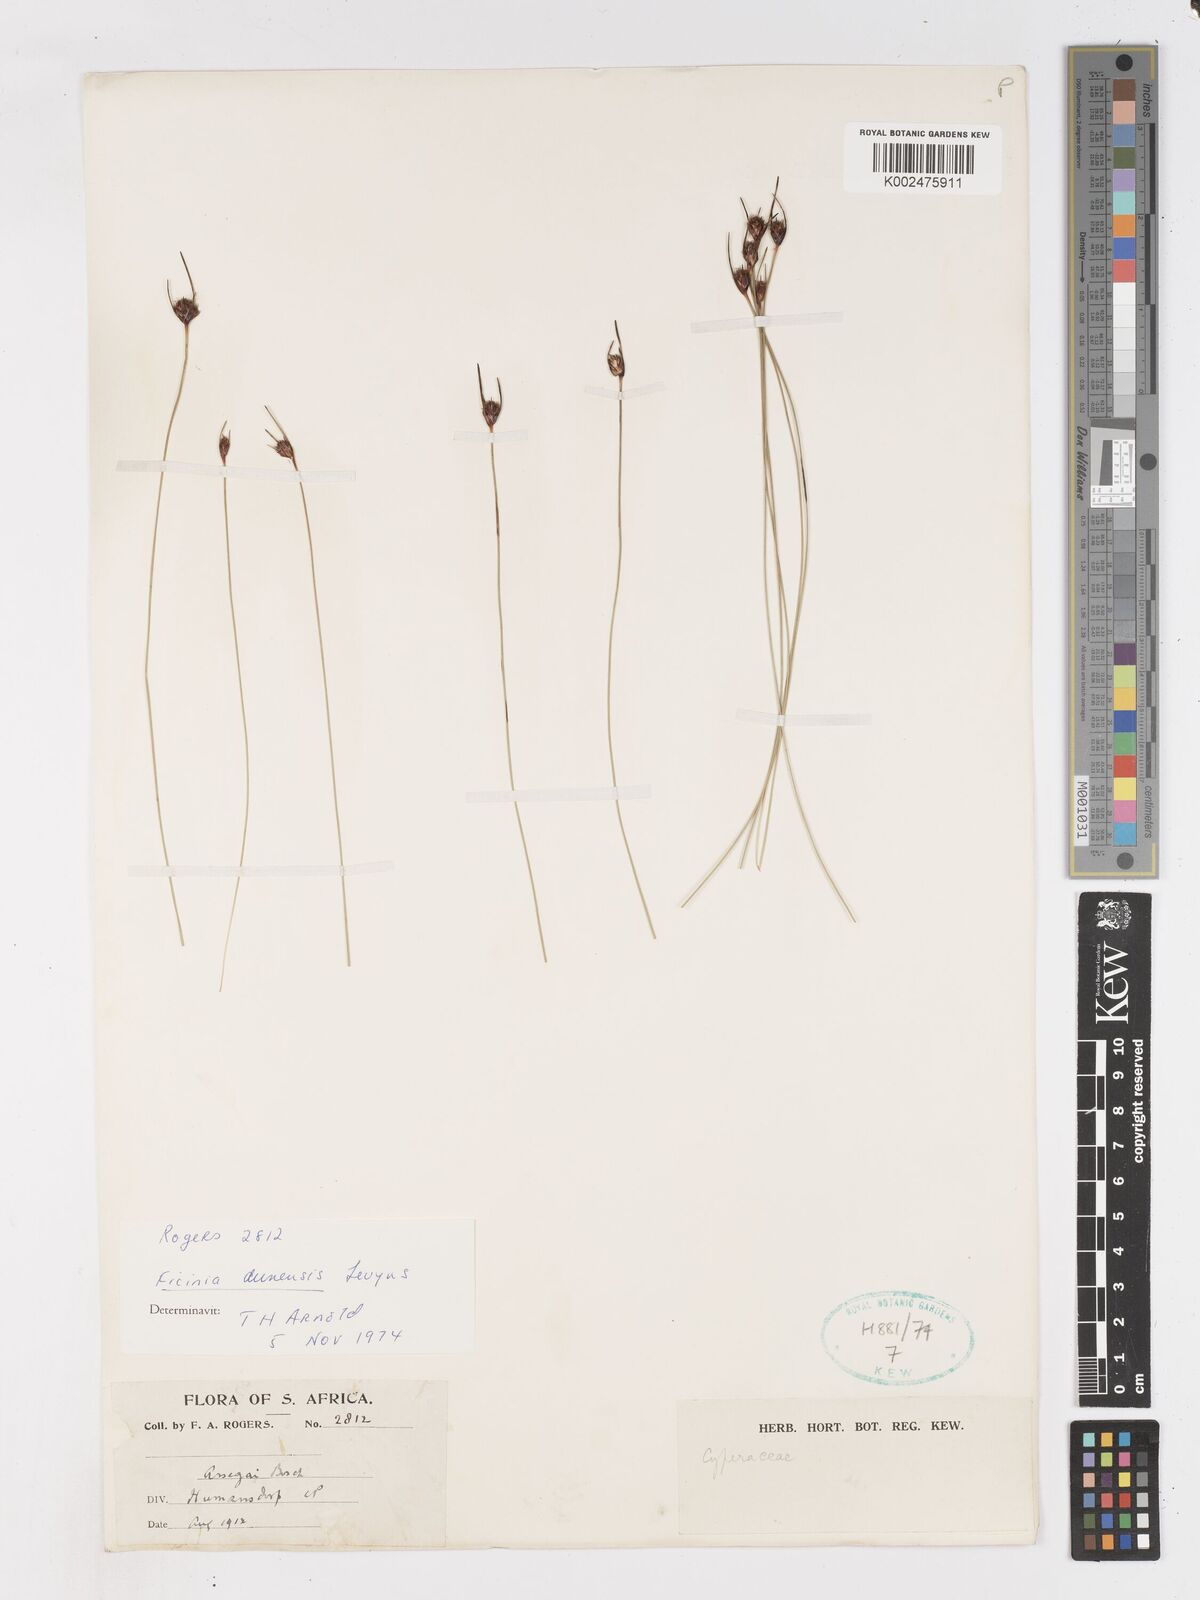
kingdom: Plantae
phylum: Tracheophyta
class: Liliopsida
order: Poales
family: Cyperaceae
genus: Ficinia
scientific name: Ficinia dunensis
